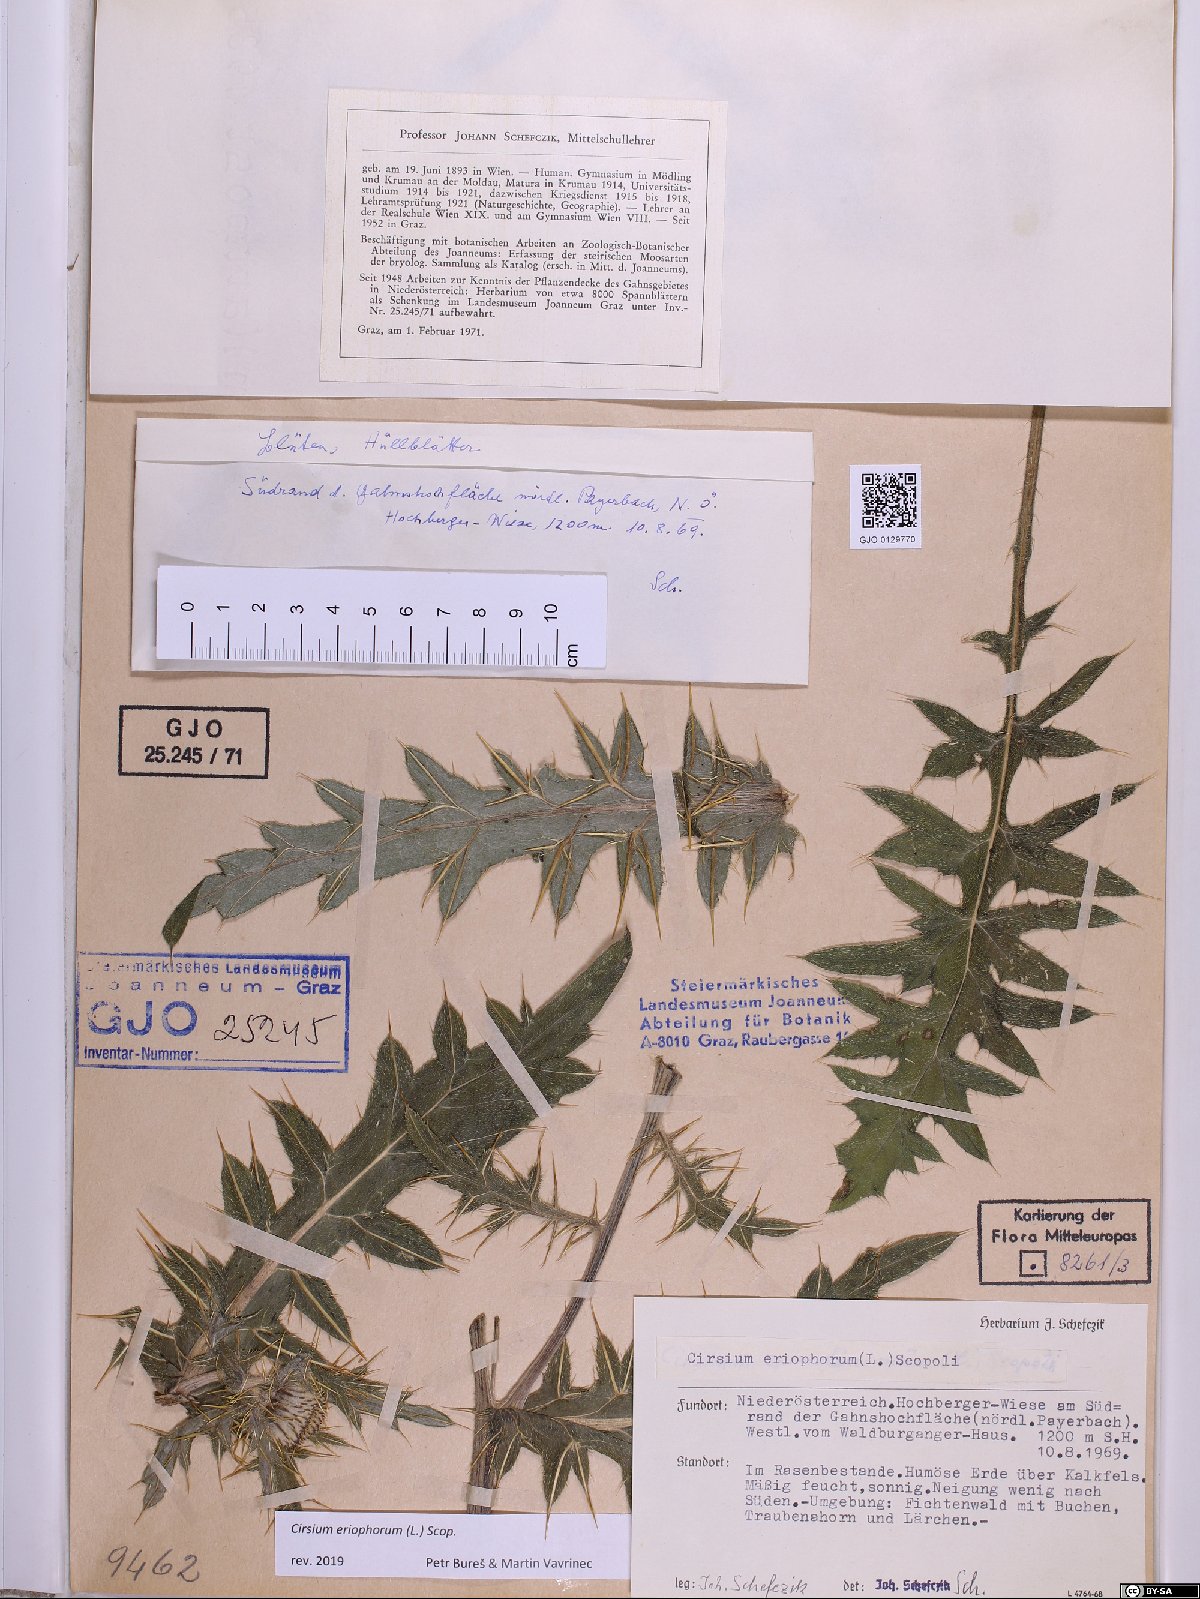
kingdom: Plantae
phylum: Tracheophyta
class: Magnoliopsida
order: Asterales
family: Asteraceae
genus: Lophiolepis
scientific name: Lophiolepis eriophora
